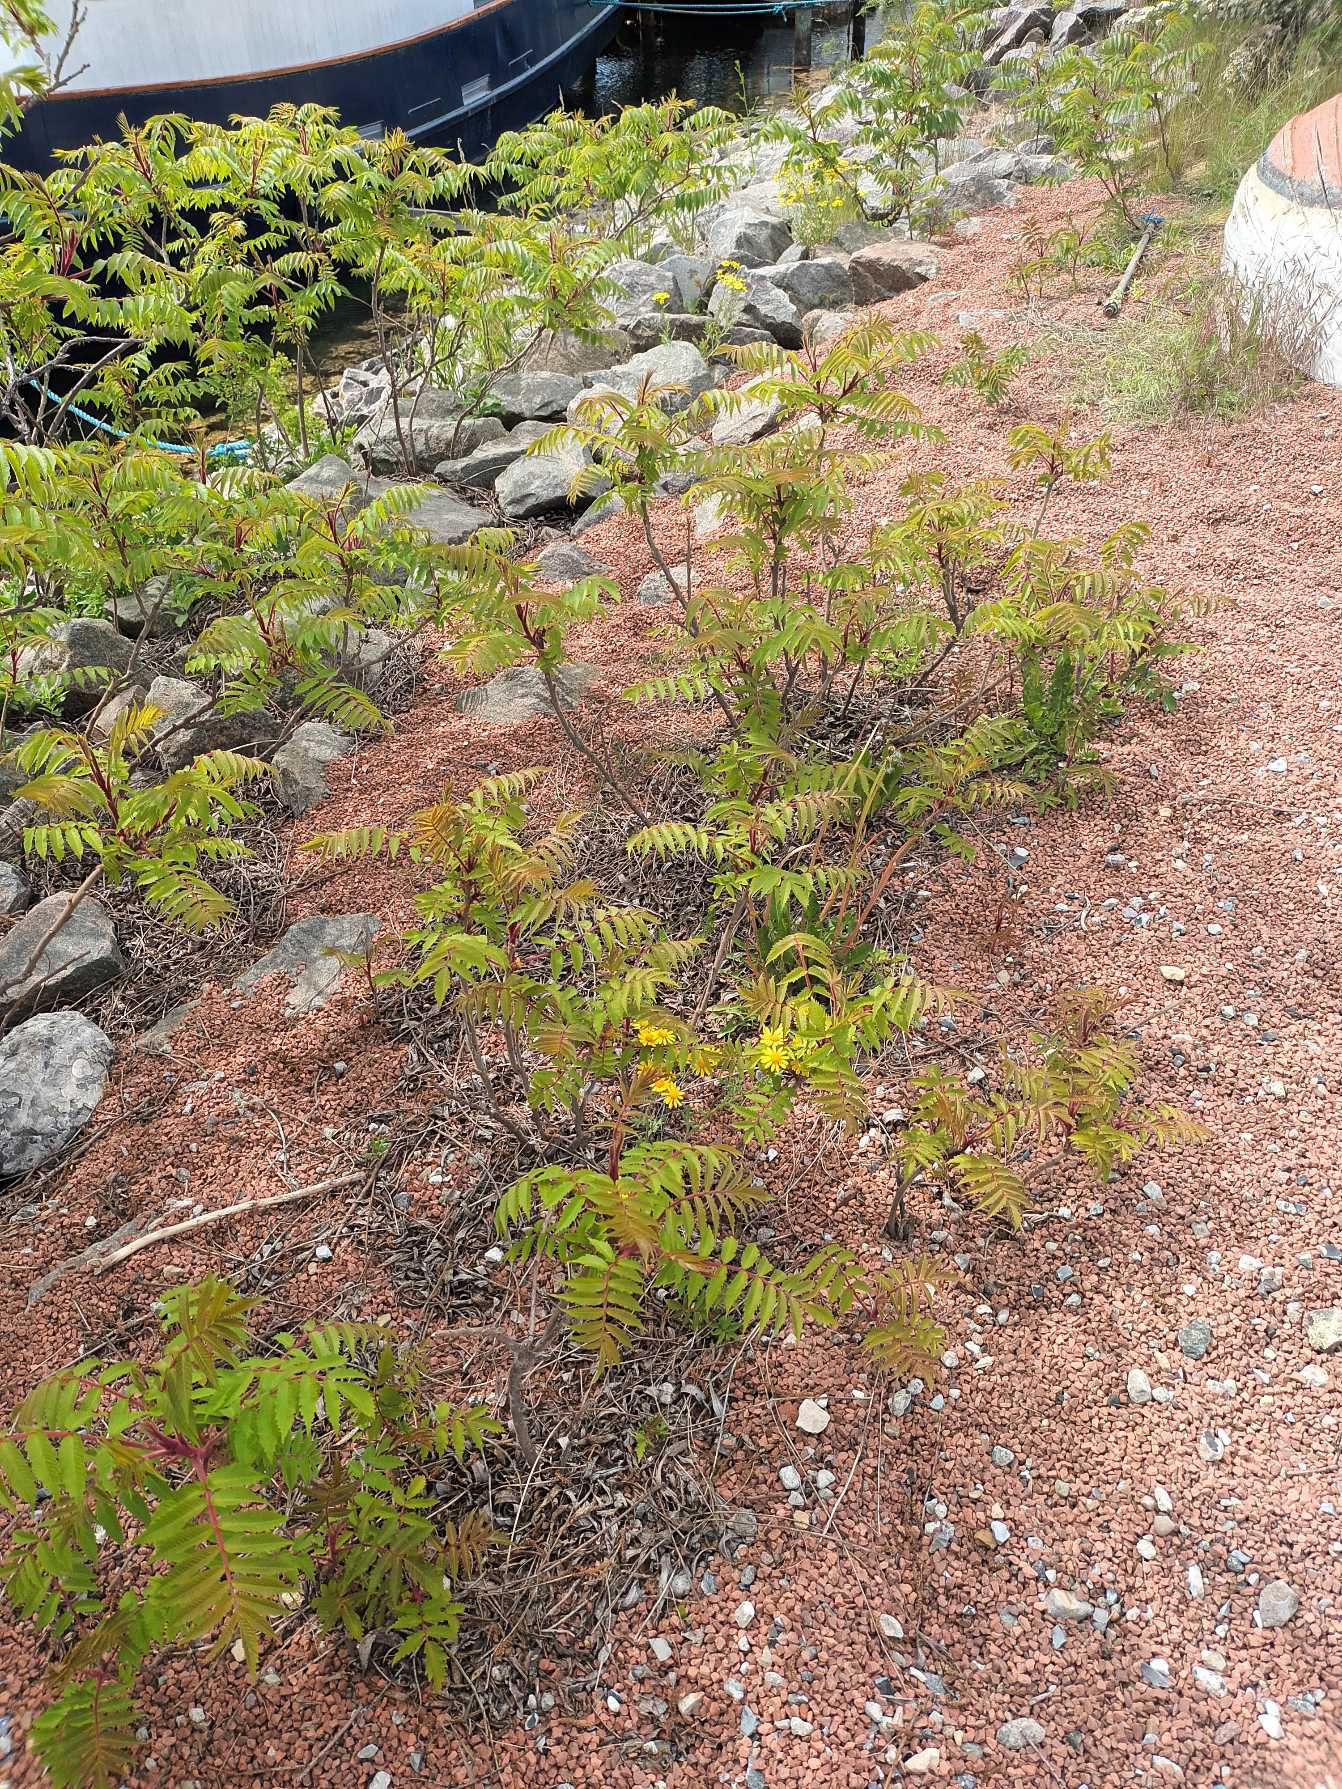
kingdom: Plantae
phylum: Tracheophyta
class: Magnoliopsida
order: Sapindales
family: Anacardiaceae
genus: Rhus
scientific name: Rhus typhina
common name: Hjortetaktræ
